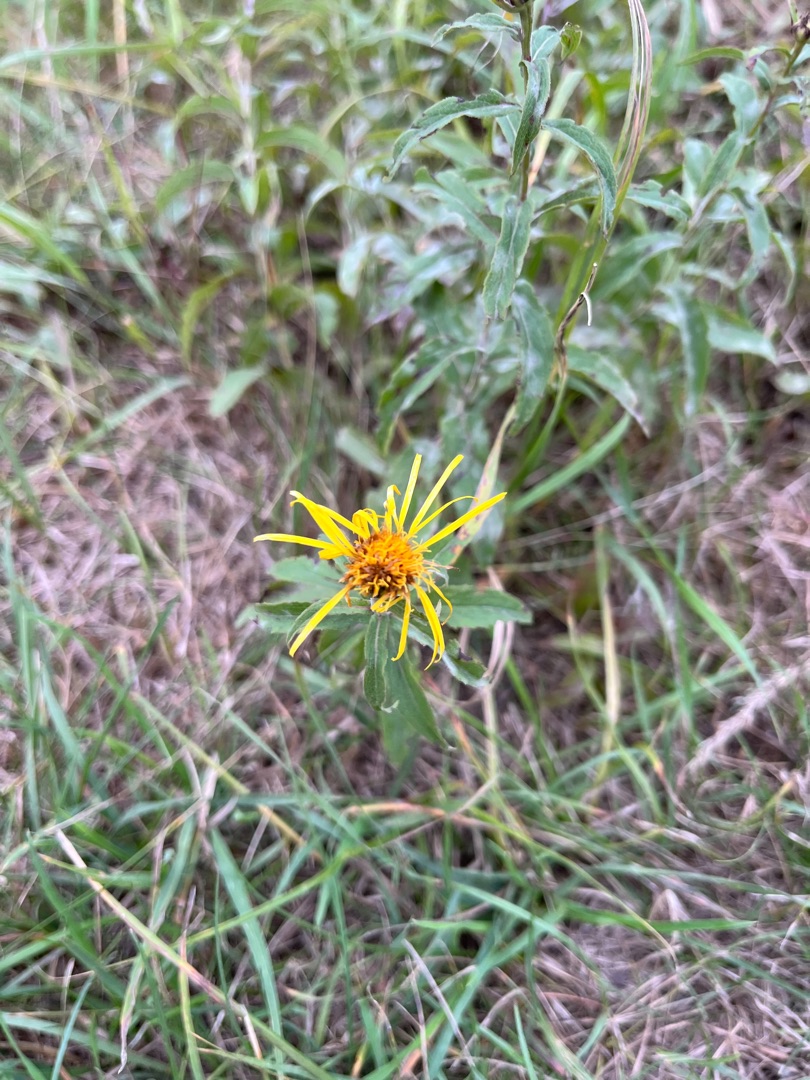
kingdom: Plantae
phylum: Tracheophyta
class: Magnoliopsida
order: Asterales
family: Asteraceae
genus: Pentanema
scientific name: Pentanema salicinum
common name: Pile-alant
